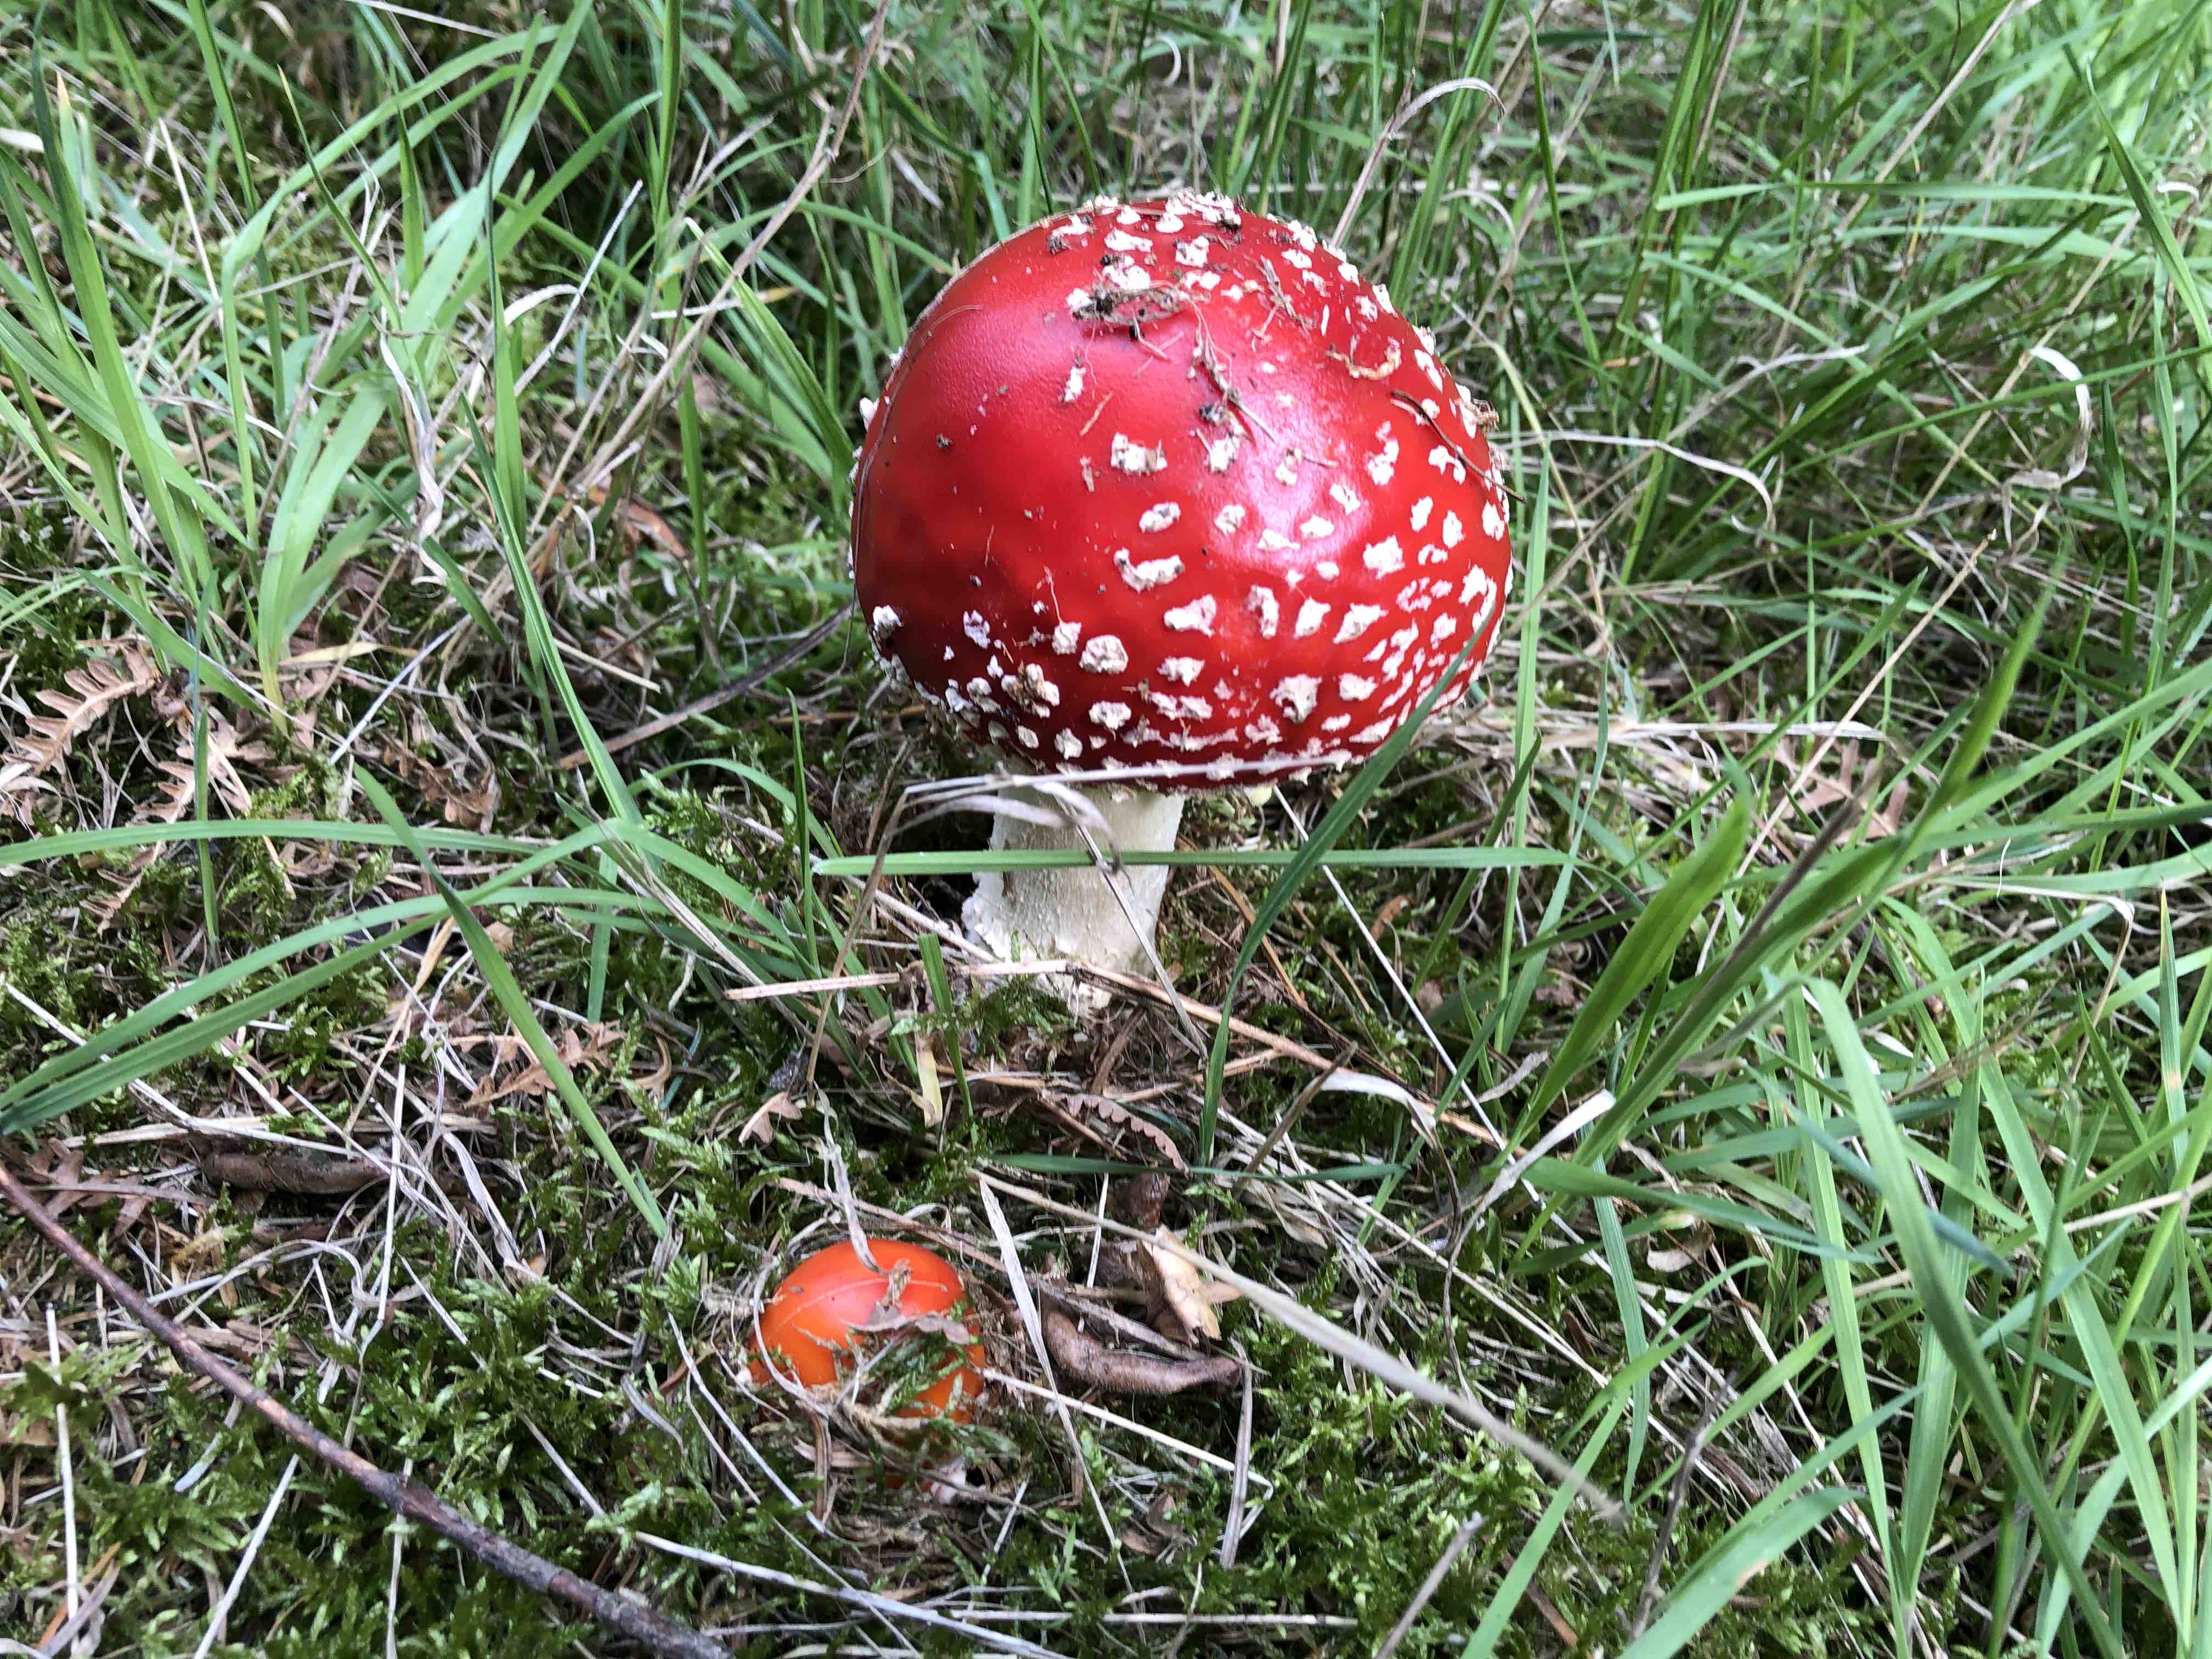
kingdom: Fungi
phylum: Basidiomycota
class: Agaricomycetes
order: Agaricales
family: Amanitaceae
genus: Amanita
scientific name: Amanita muscaria
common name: rød fluesvamp
